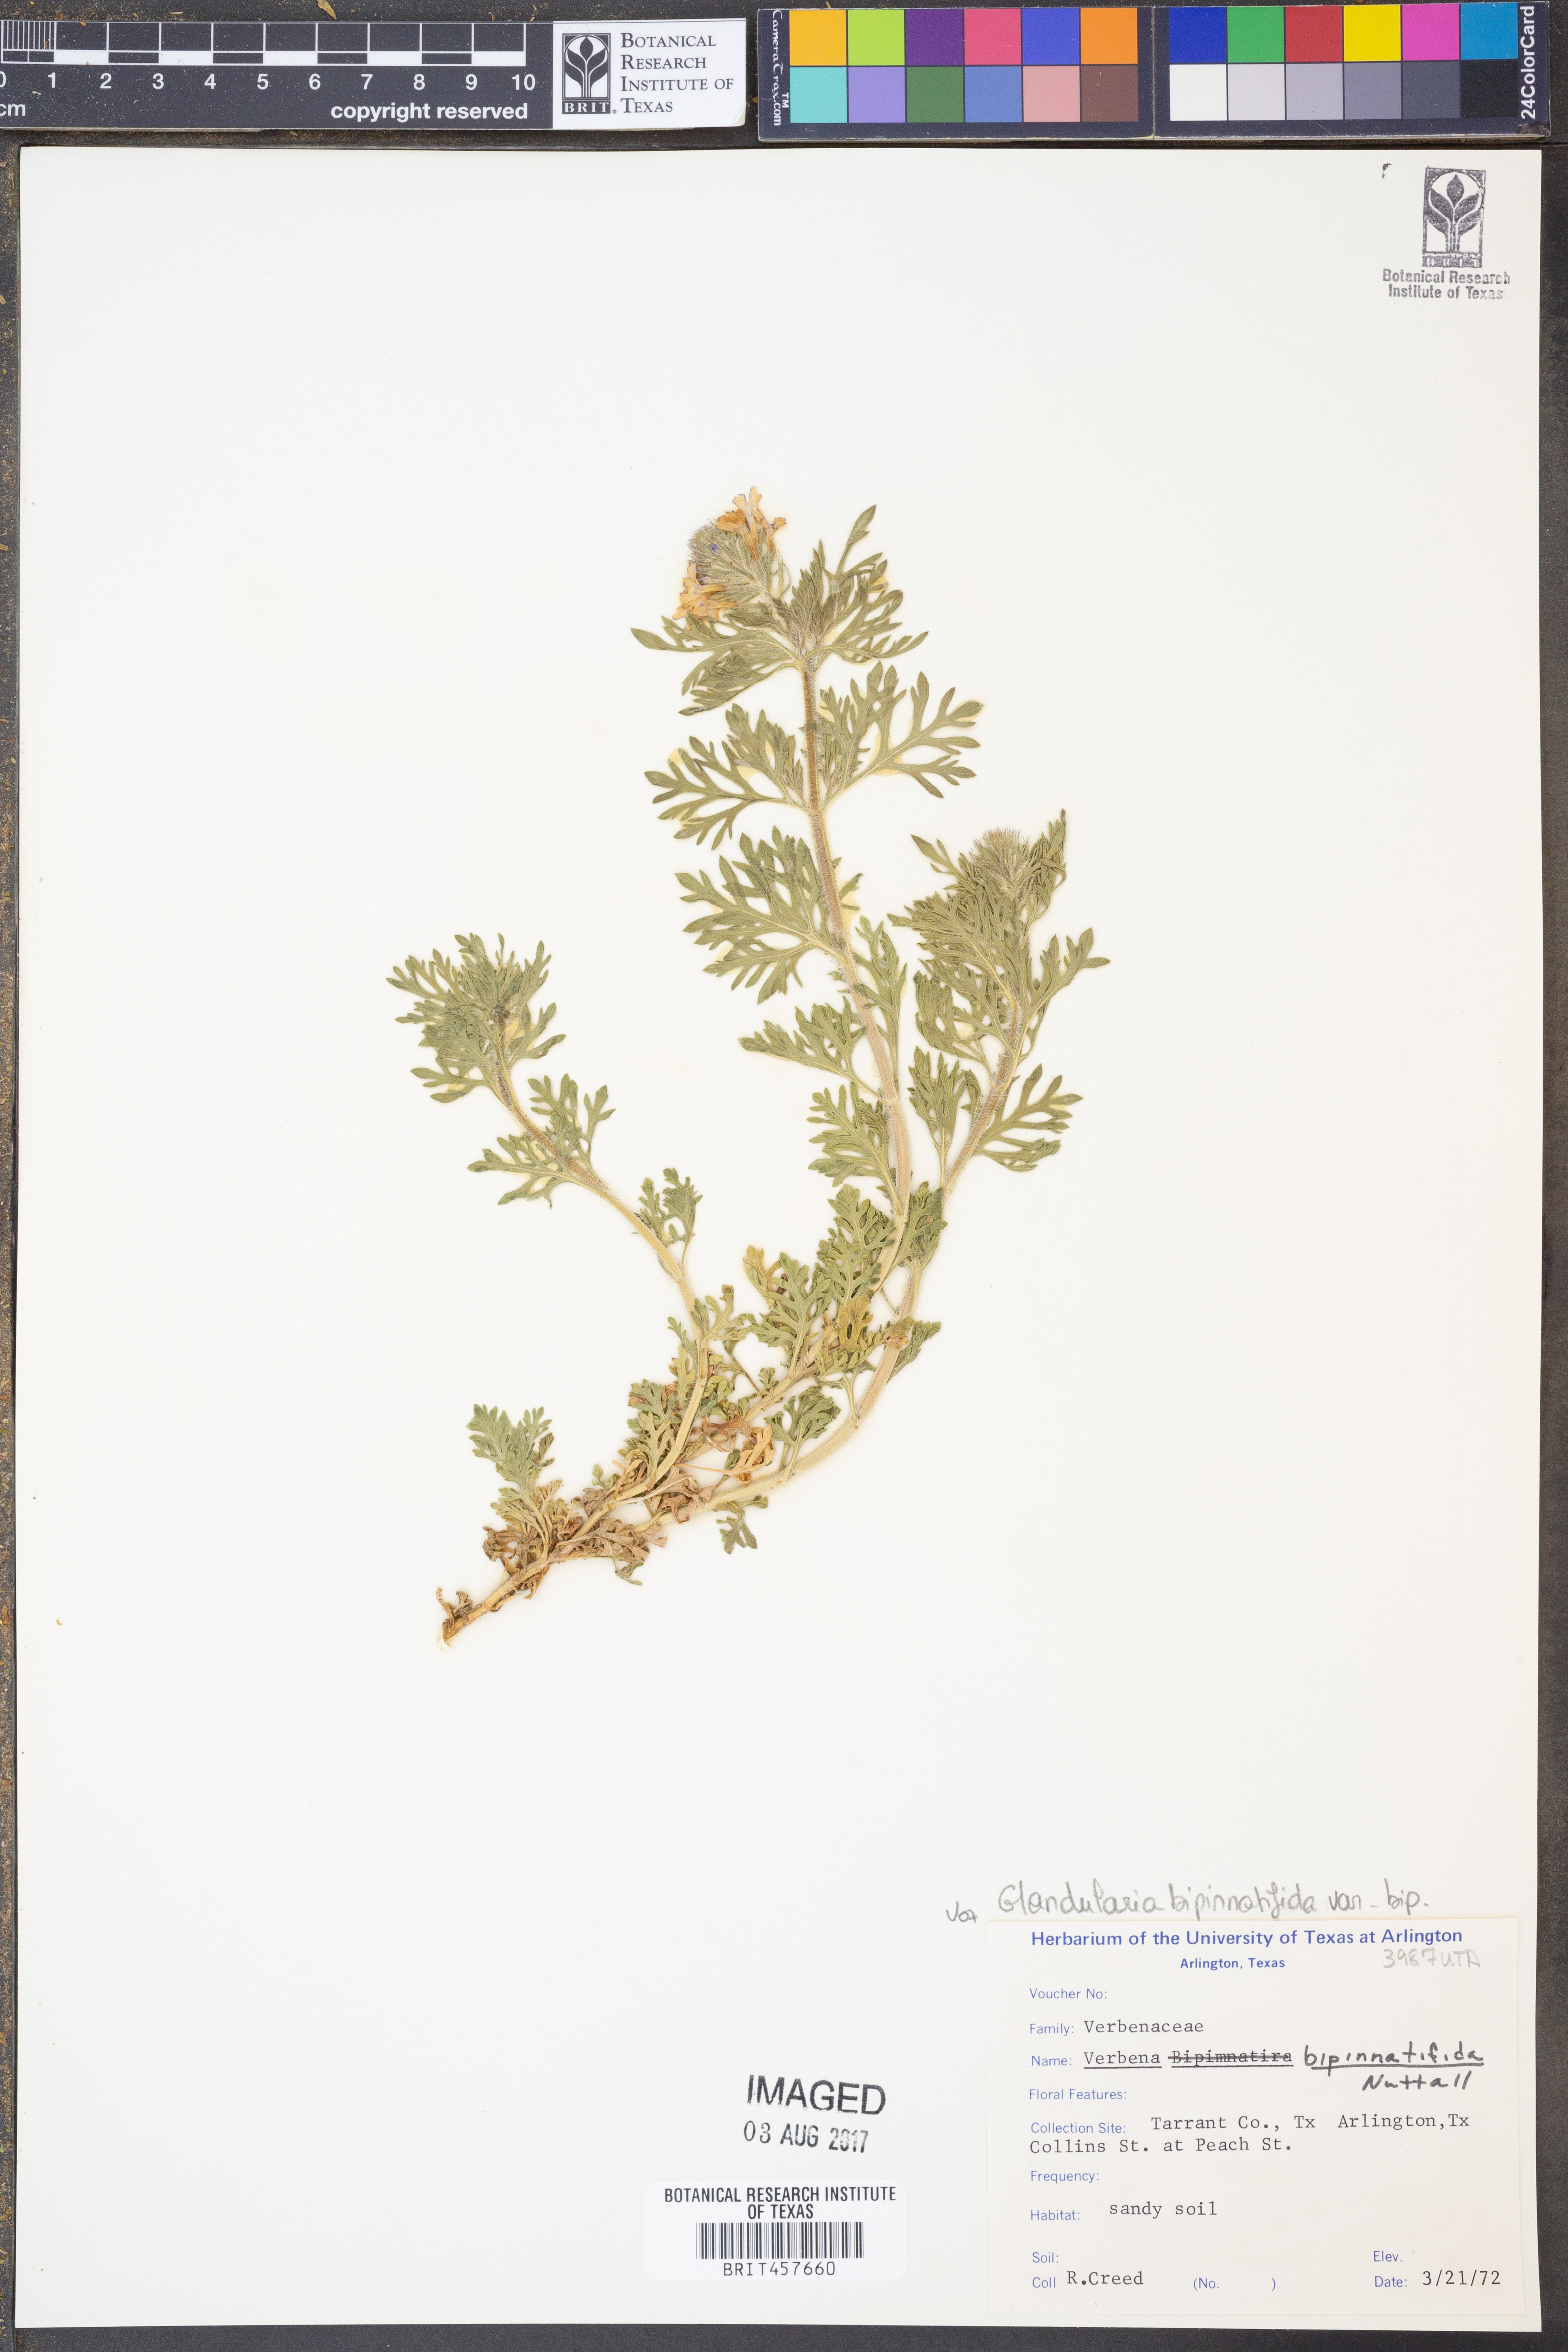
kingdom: Plantae
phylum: Tracheophyta
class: Magnoliopsida
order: Lamiales
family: Verbenaceae
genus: Verbena
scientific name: Verbena bipinnatifida
